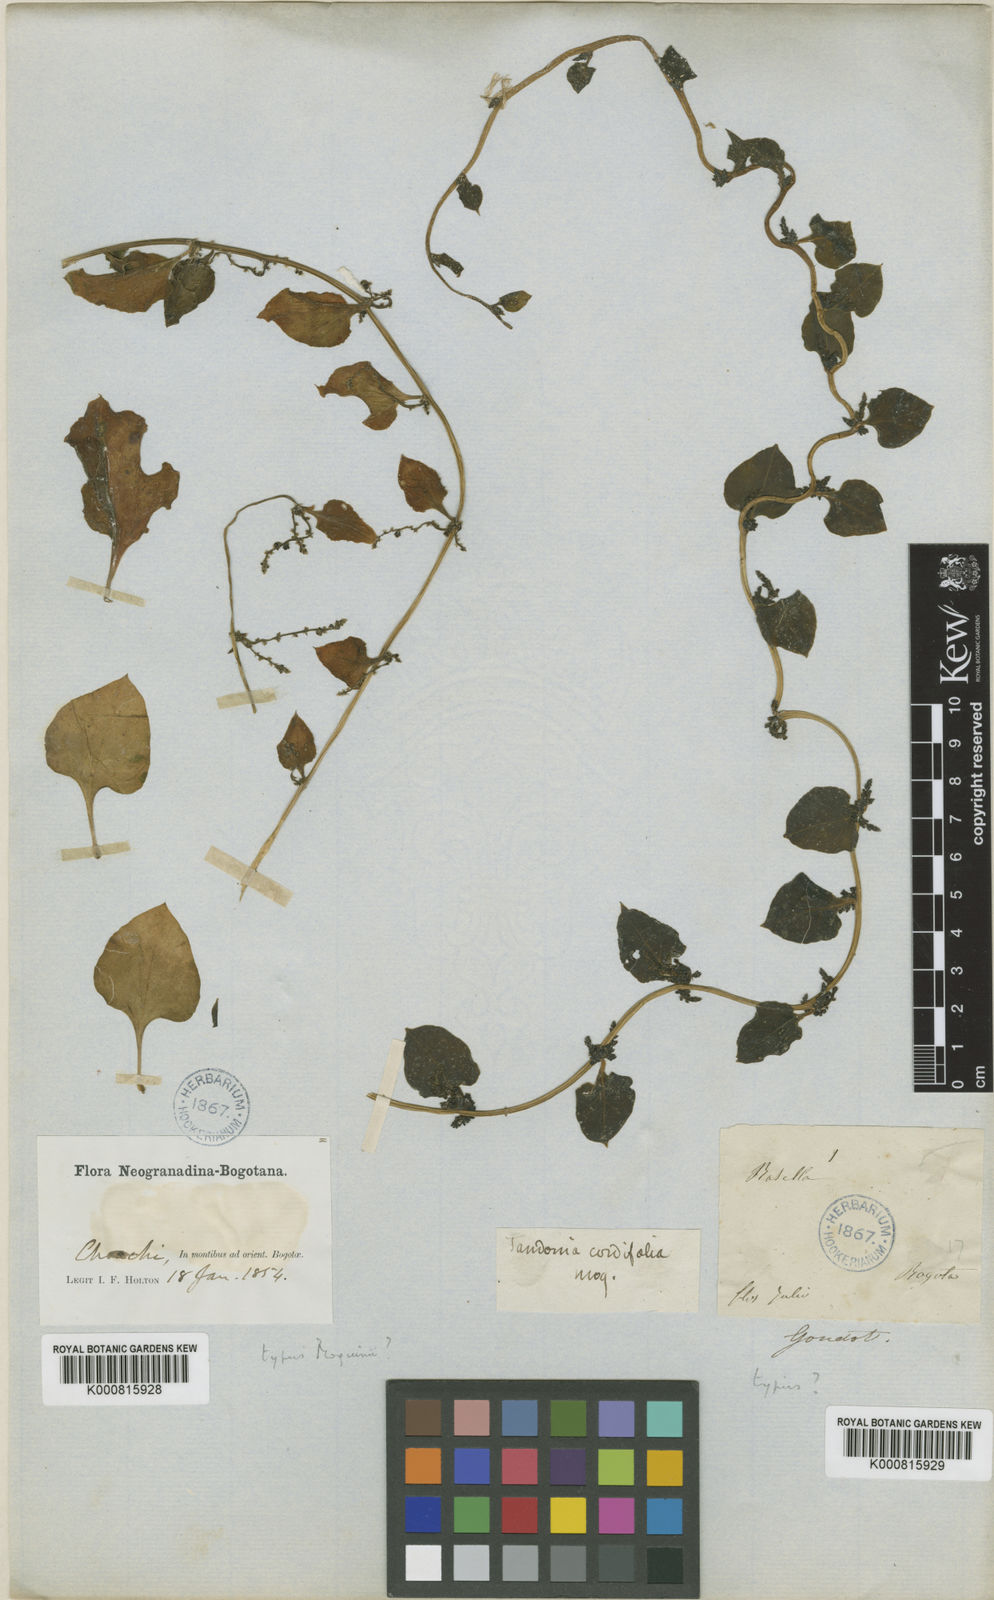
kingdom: Plantae
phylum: Tracheophyta
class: Magnoliopsida
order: Caryophyllales
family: Basellaceae
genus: Anredera
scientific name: Anredera brachystachys
